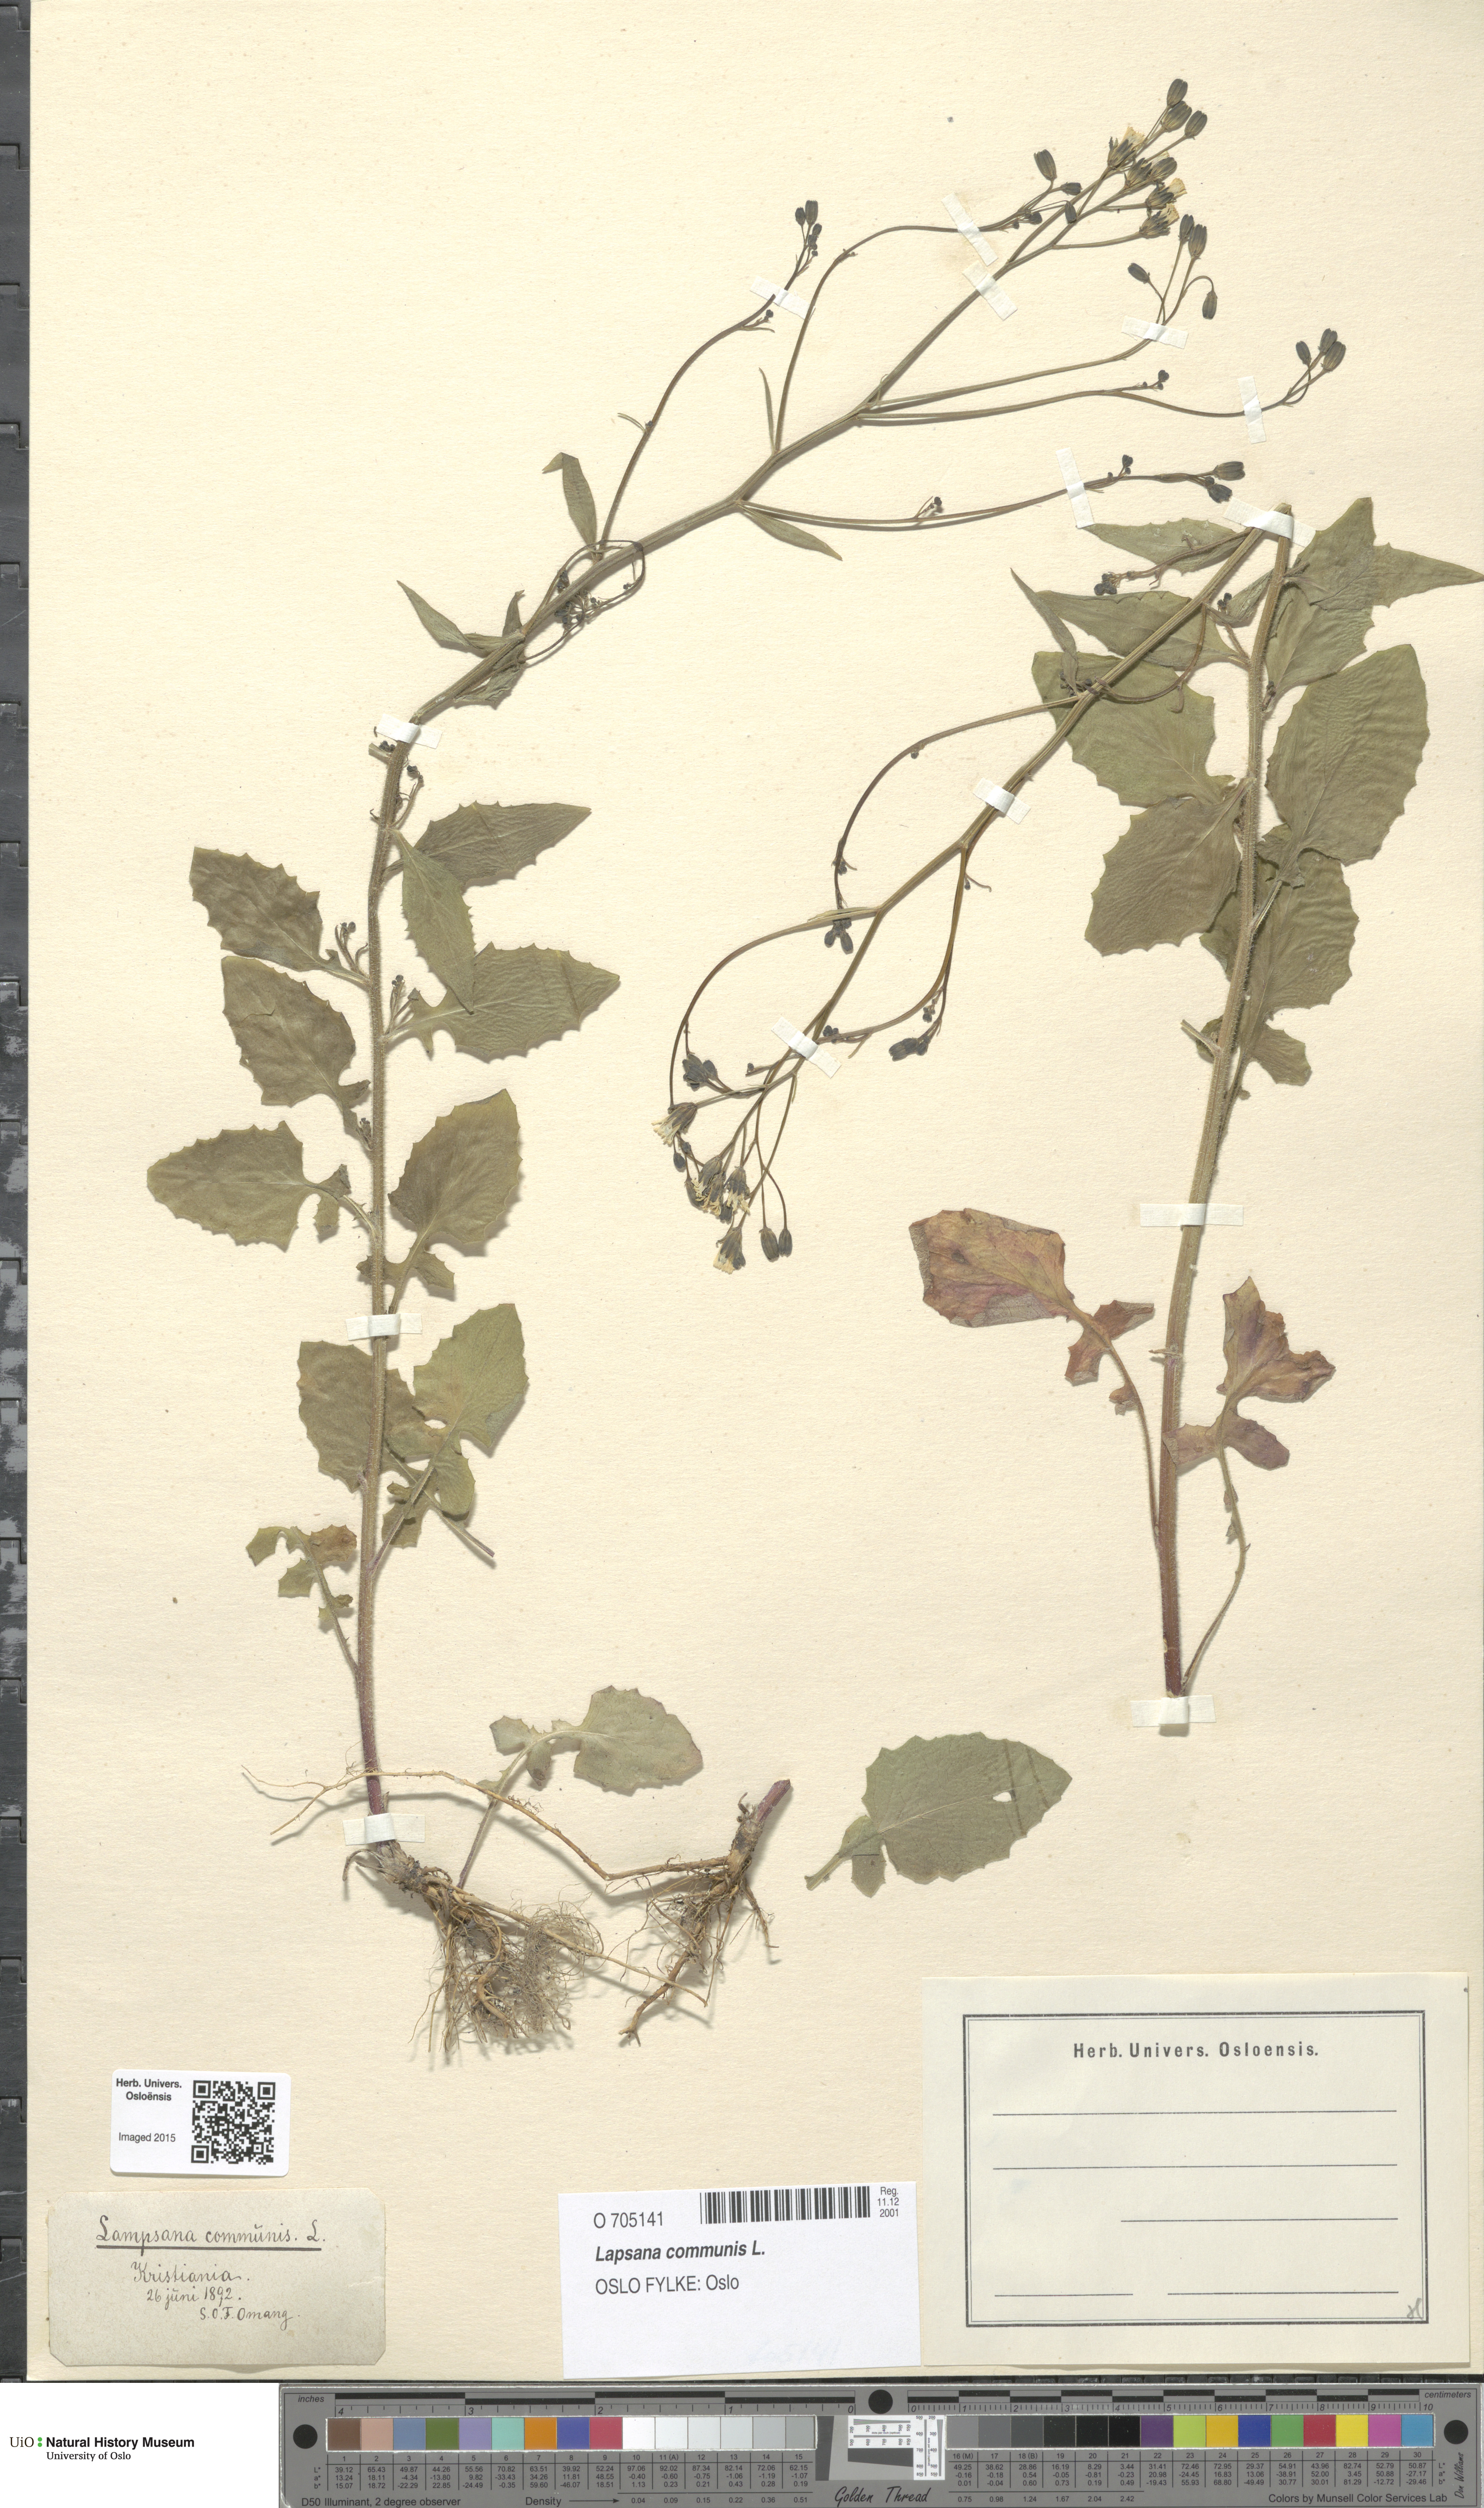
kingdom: Plantae
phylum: Tracheophyta
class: Magnoliopsida
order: Asterales
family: Asteraceae
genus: Lapsana
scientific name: Lapsana communis
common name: Nipplewort
